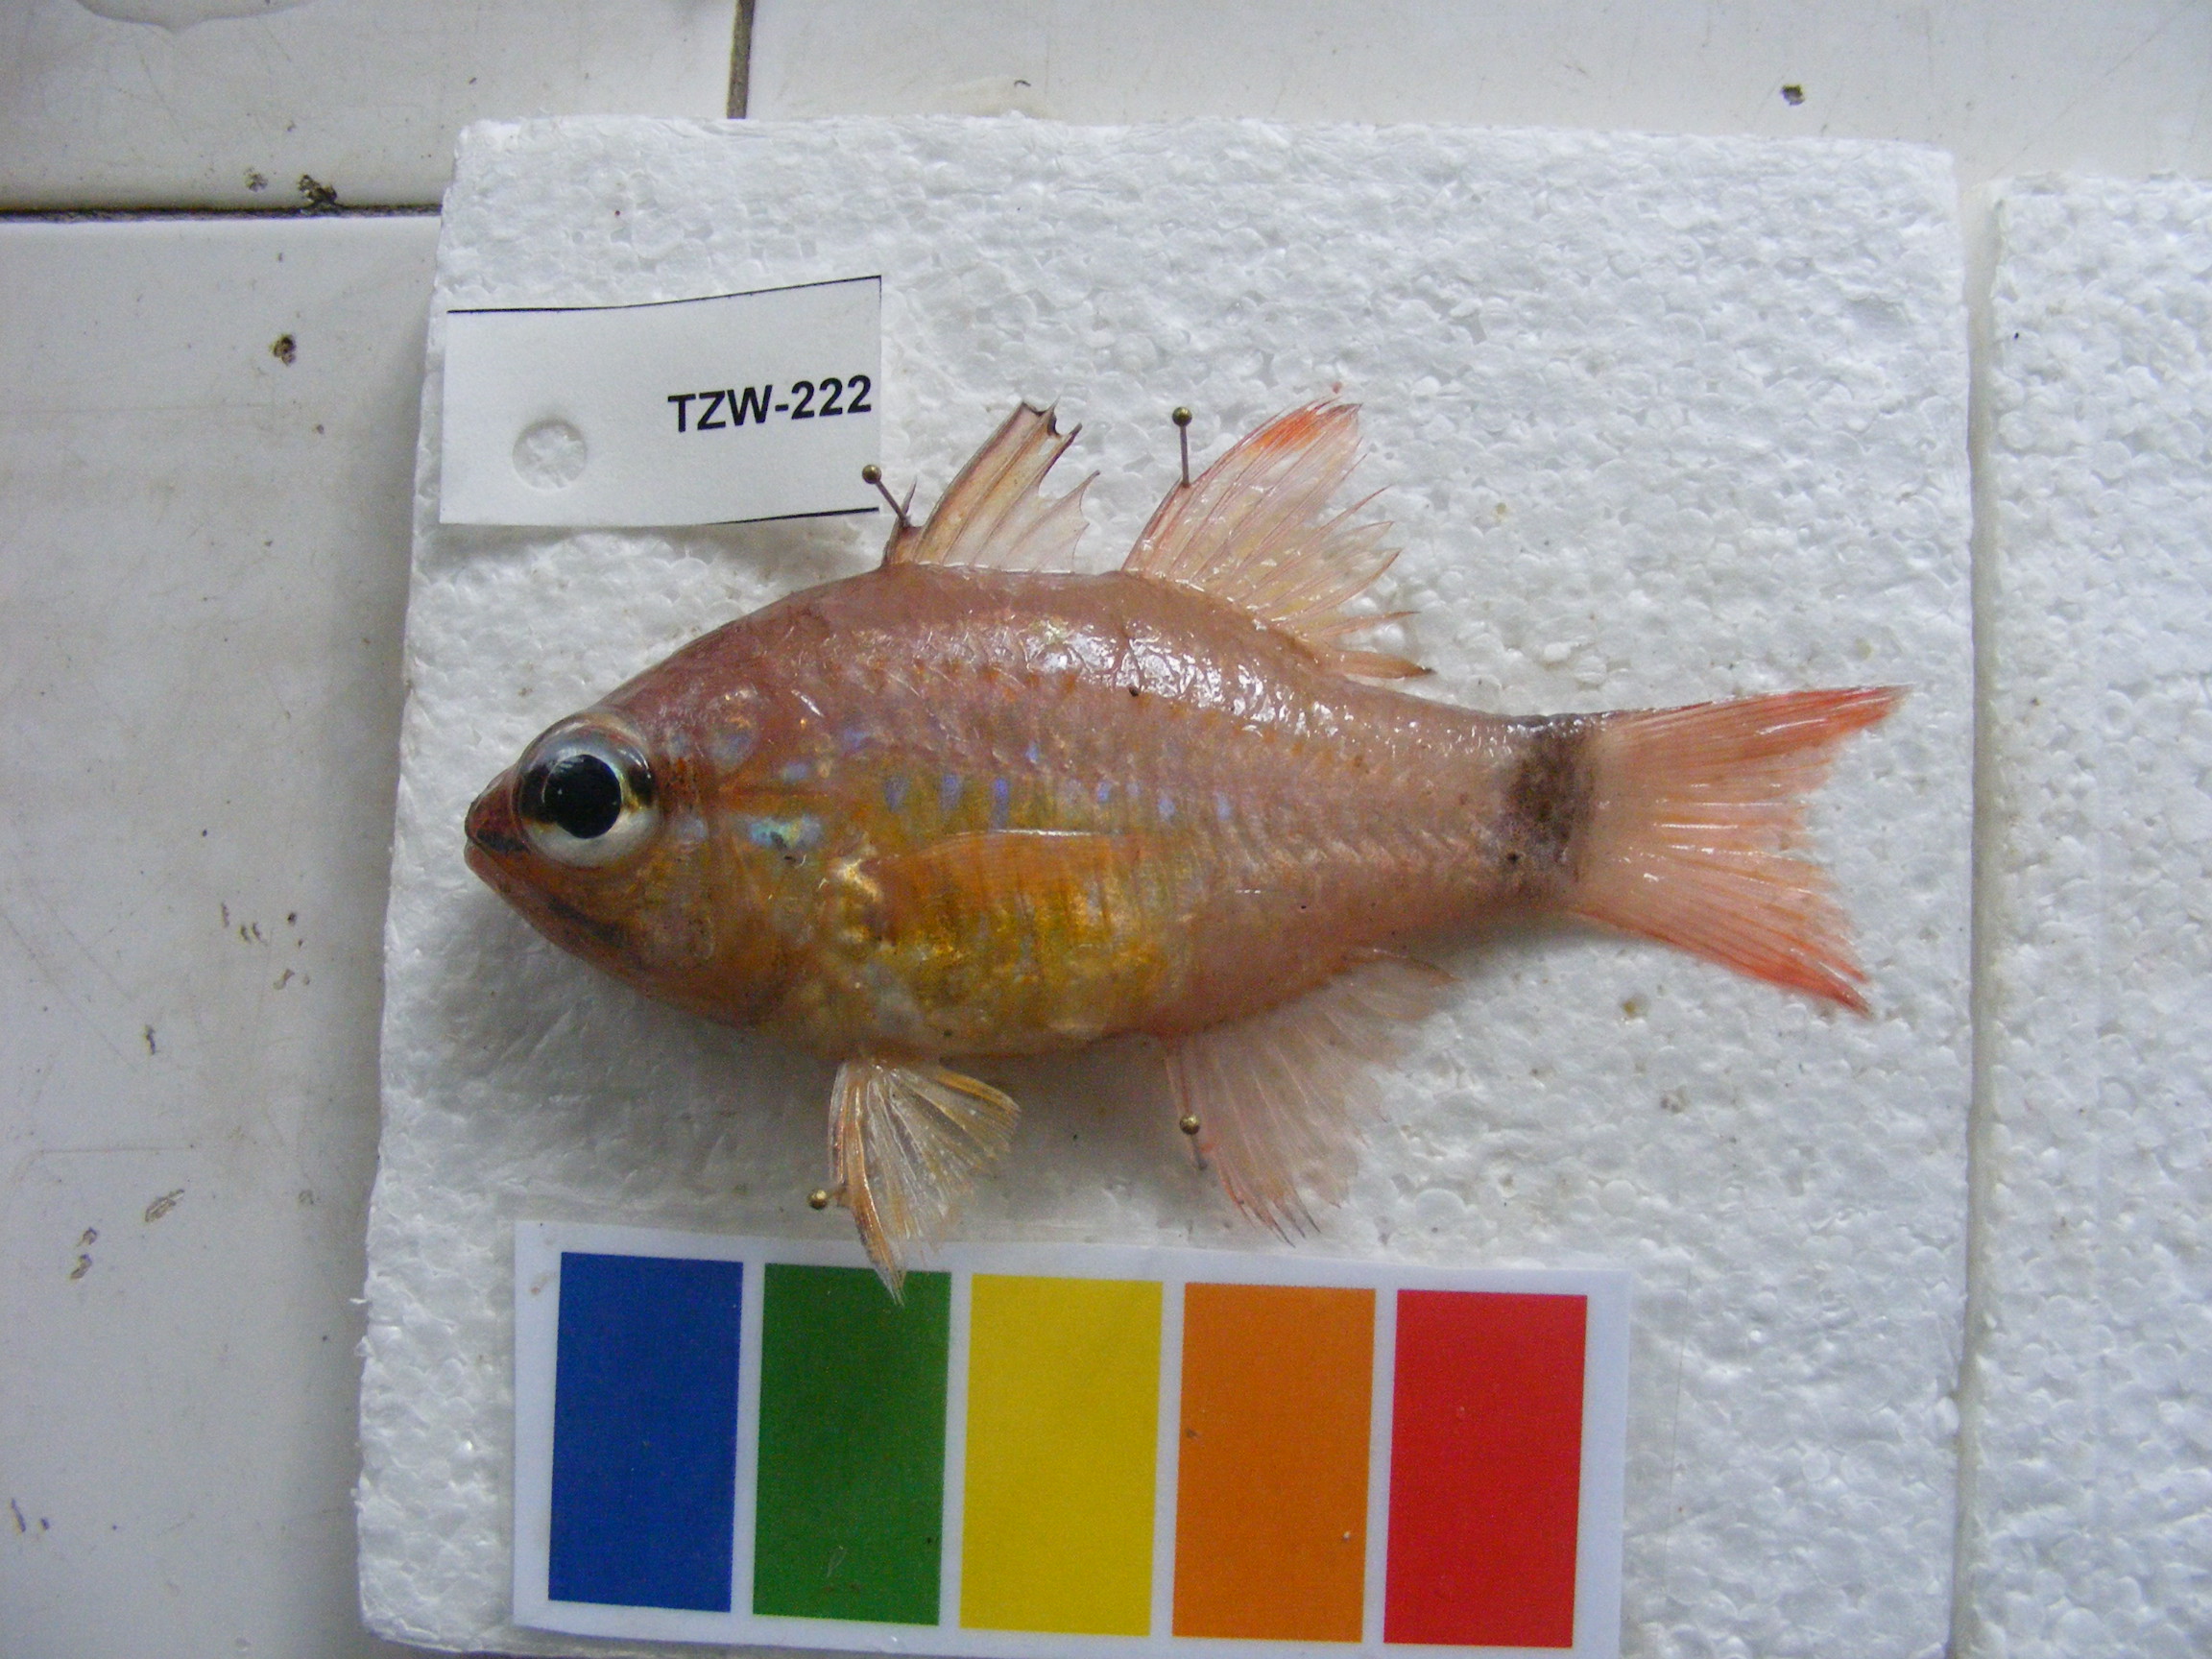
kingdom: Animalia
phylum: Chordata
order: Perciformes
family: Apogonidae
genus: Ostorhinchus
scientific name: Ostorhinchus aureus
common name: Ring-tailed cardinalfish
